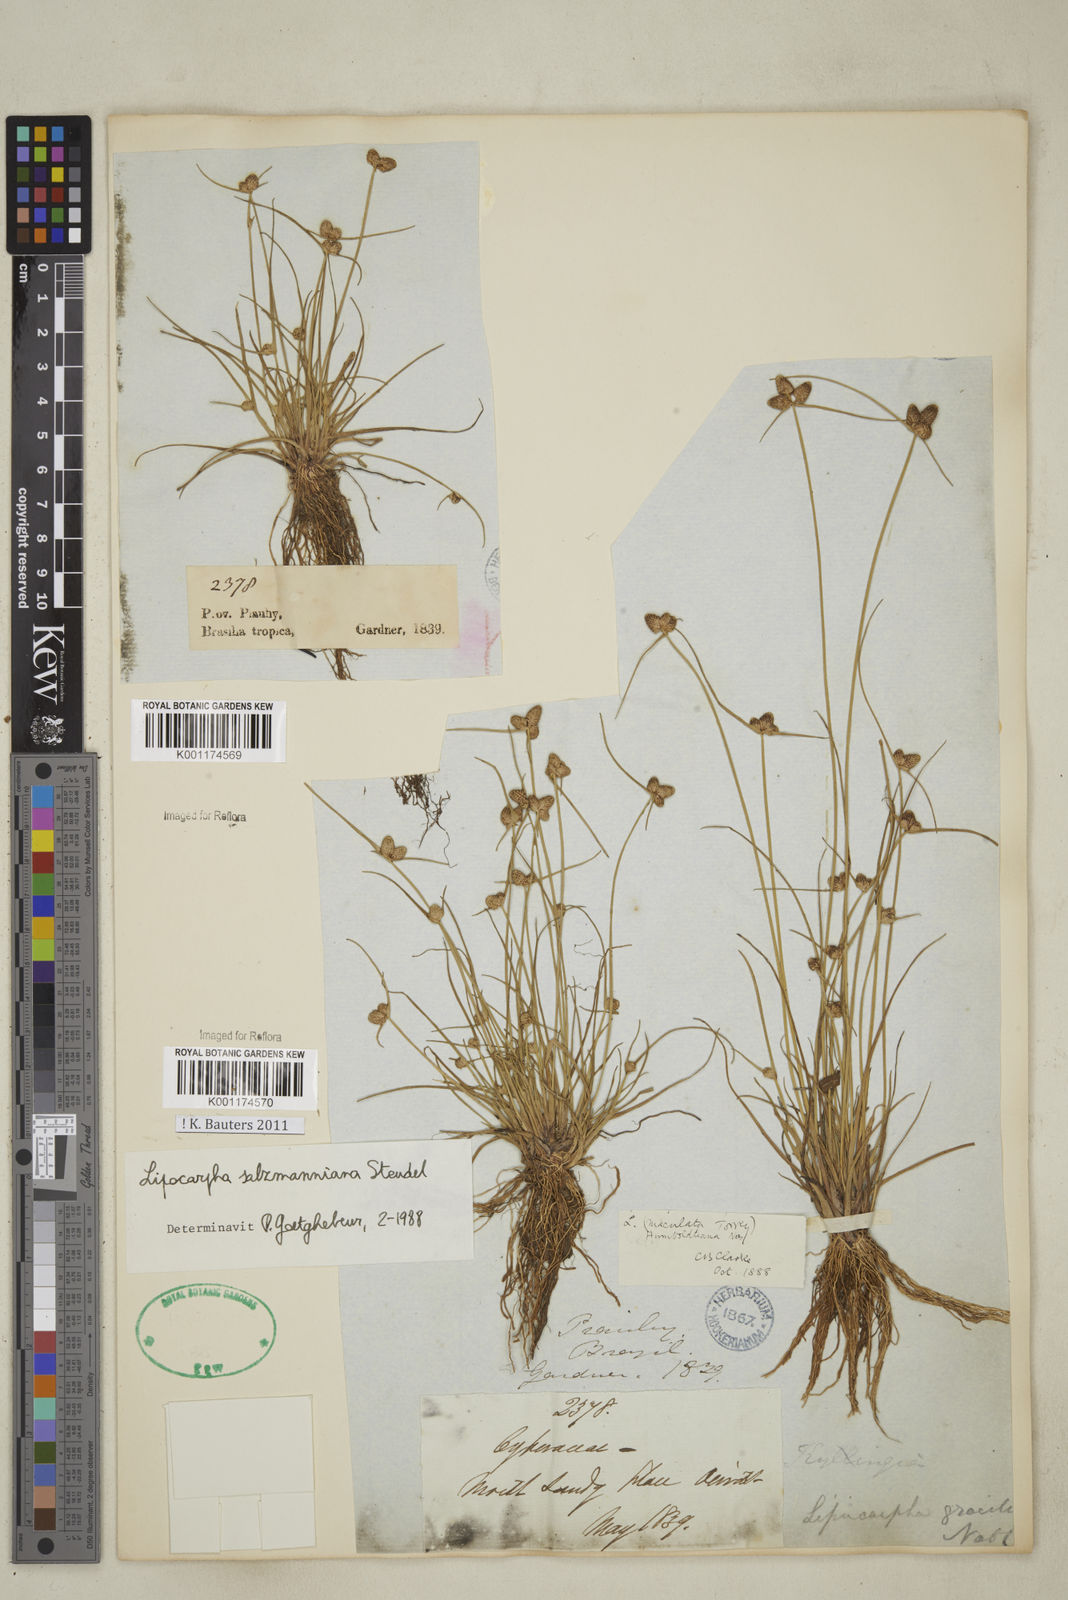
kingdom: Plantae
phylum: Tracheophyta
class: Liliopsida
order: Poales
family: Cyperaceae
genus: Cyperus
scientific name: Cyperus salzmannianus
